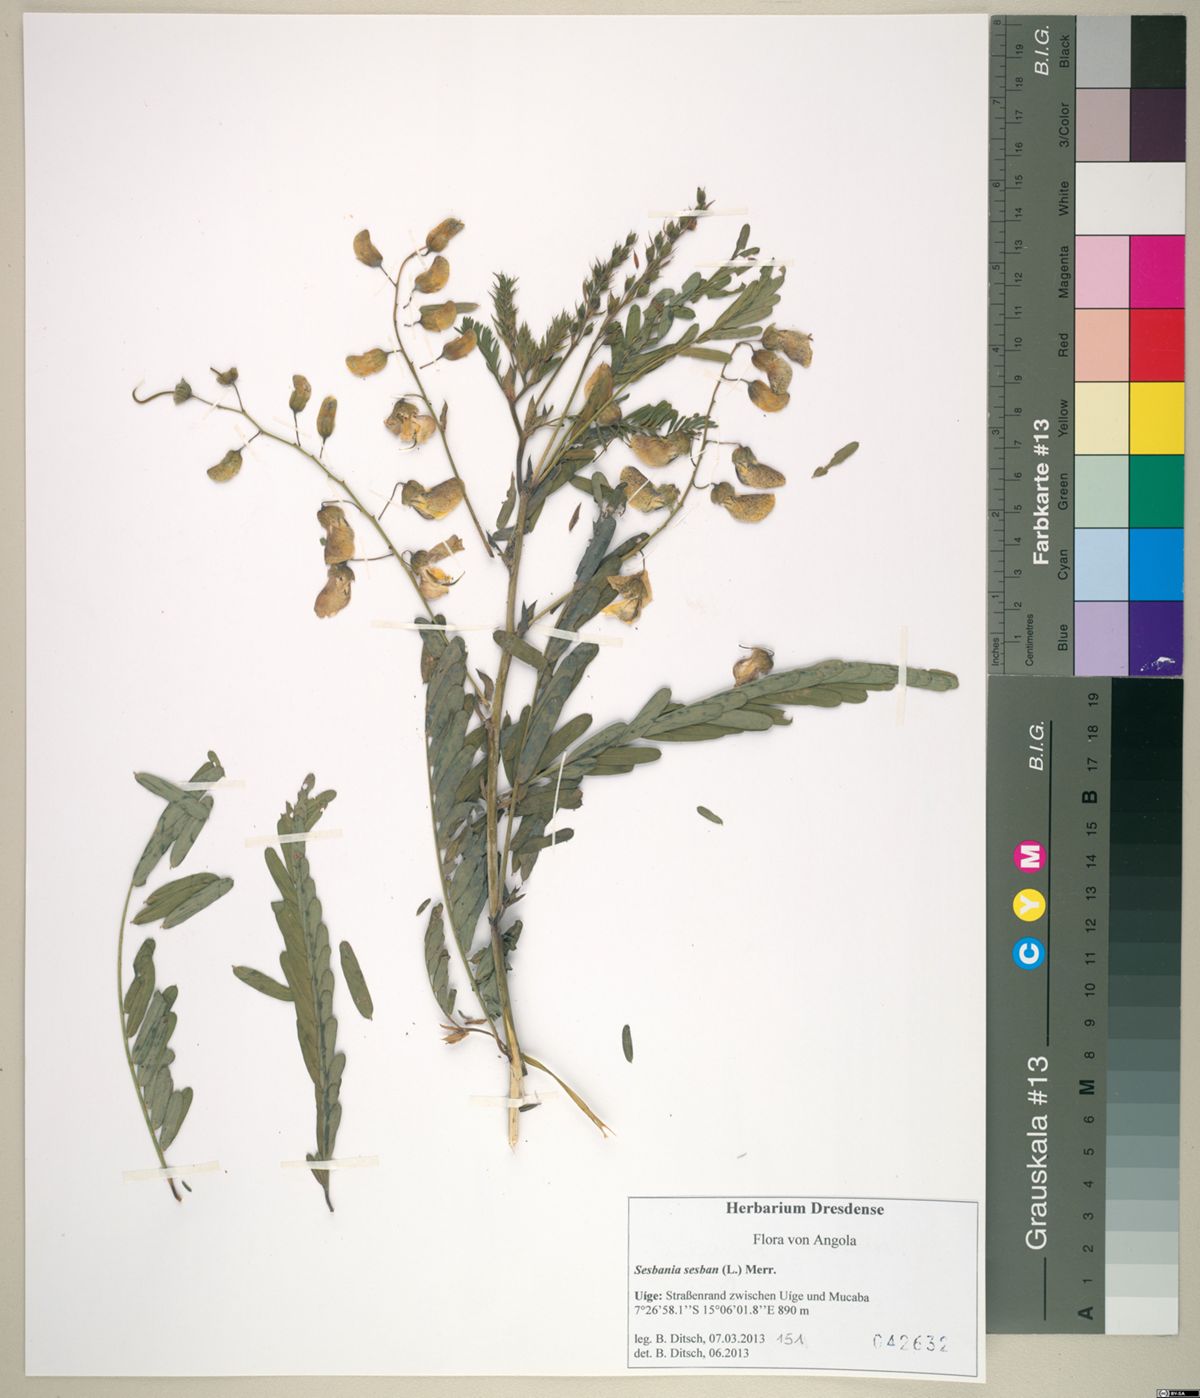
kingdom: Plantae
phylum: Tracheophyta
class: Magnoliopsida
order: Fabales
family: Fabaceae
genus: Sesbania
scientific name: Sesbania sesban
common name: Egyptian sesban
